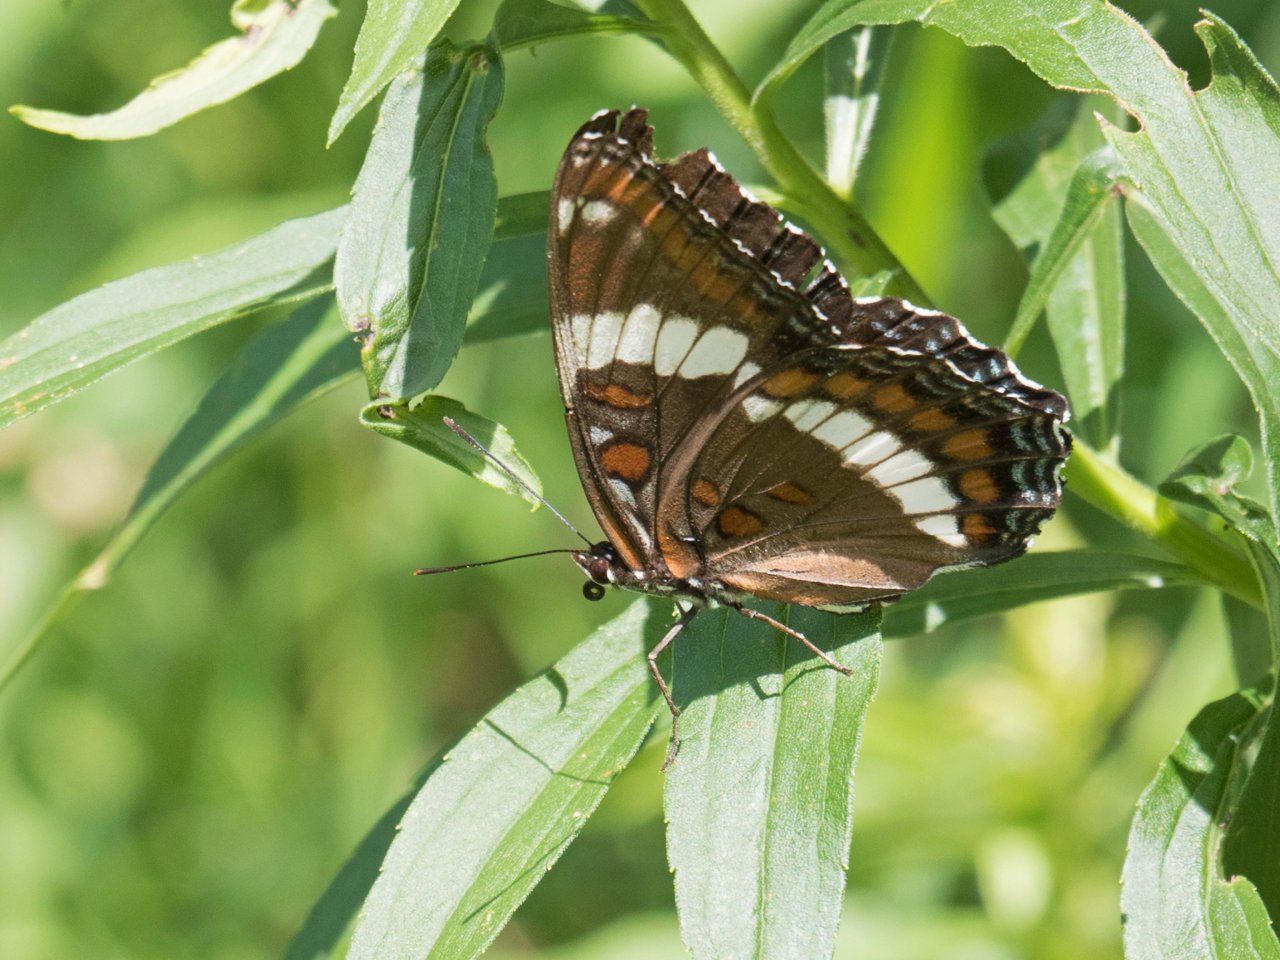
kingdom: Animalia
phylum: Arthropoda
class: Insecta
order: Lepidoptera
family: Nymphalidae
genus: Limenitis
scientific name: Limenitis arthemis
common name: Red-spotted Admiral
